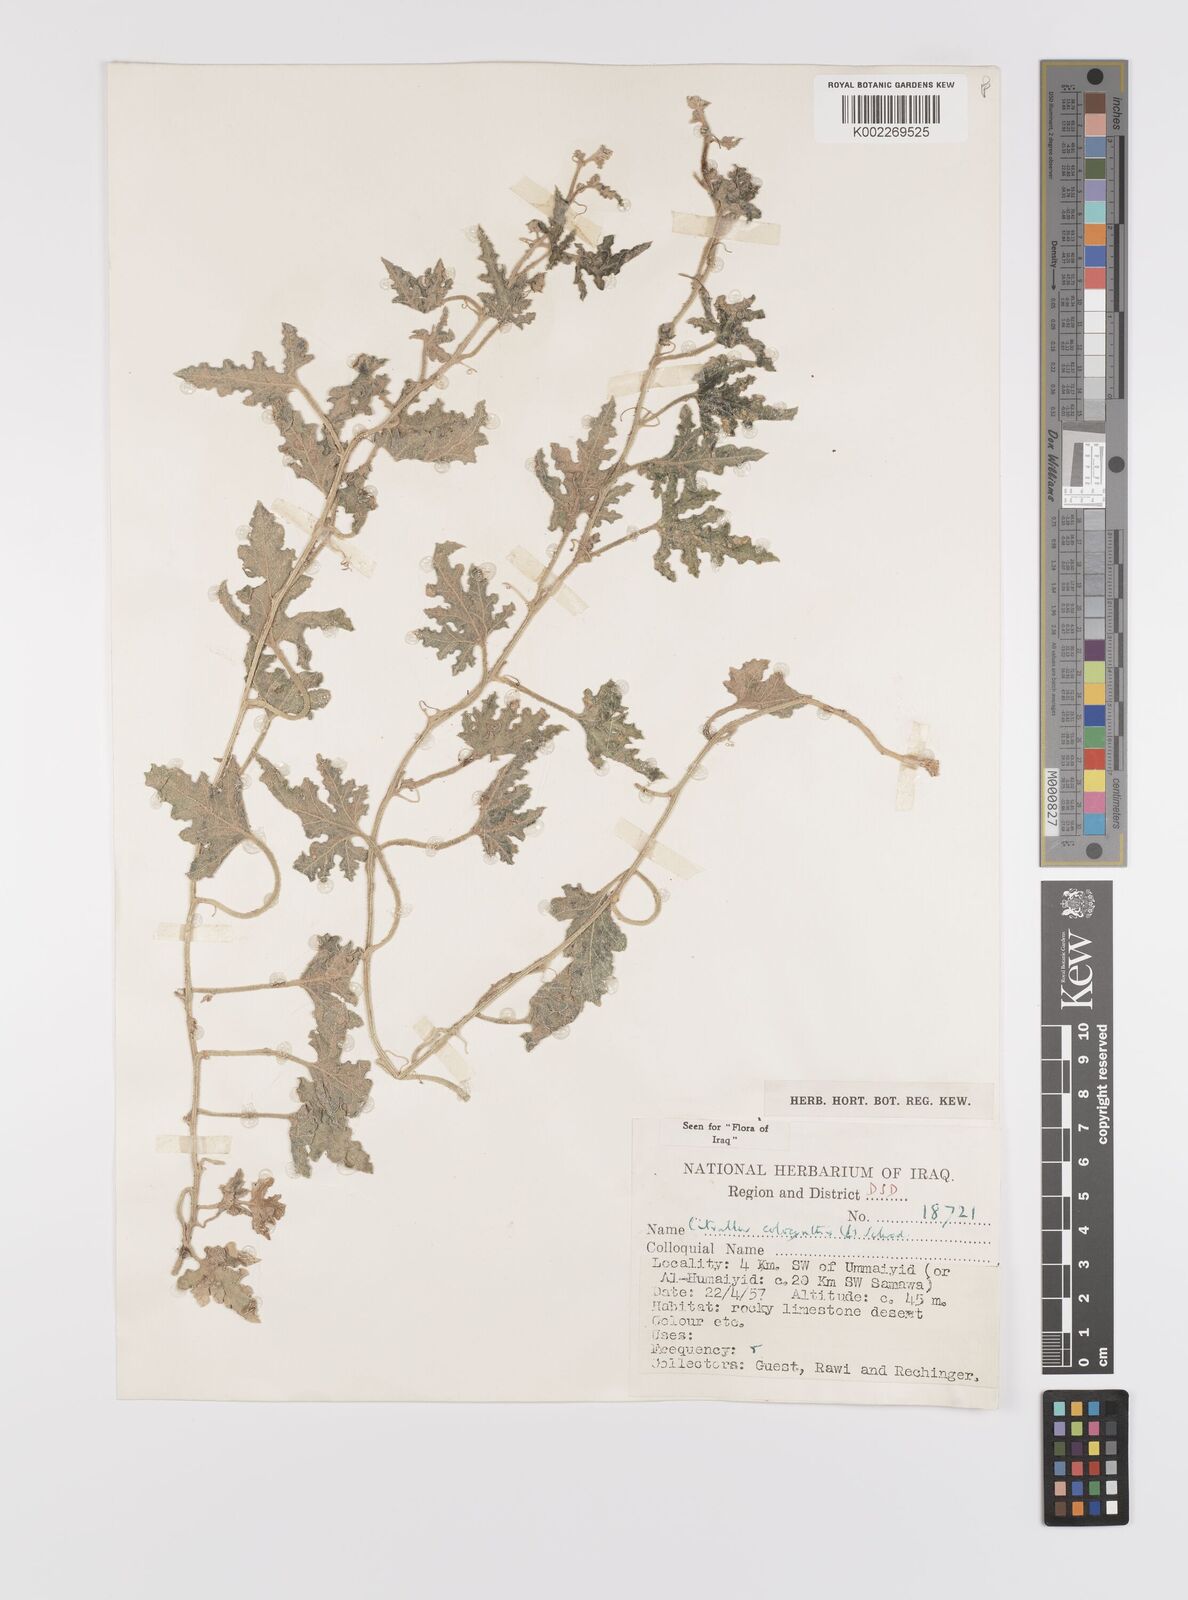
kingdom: Plantae
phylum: Tracheophyta
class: Magnoliopsida
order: Cucurbitales
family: Cucurbitaceae
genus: Citrullus
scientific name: Citrullus colocynthis
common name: Colocynth
